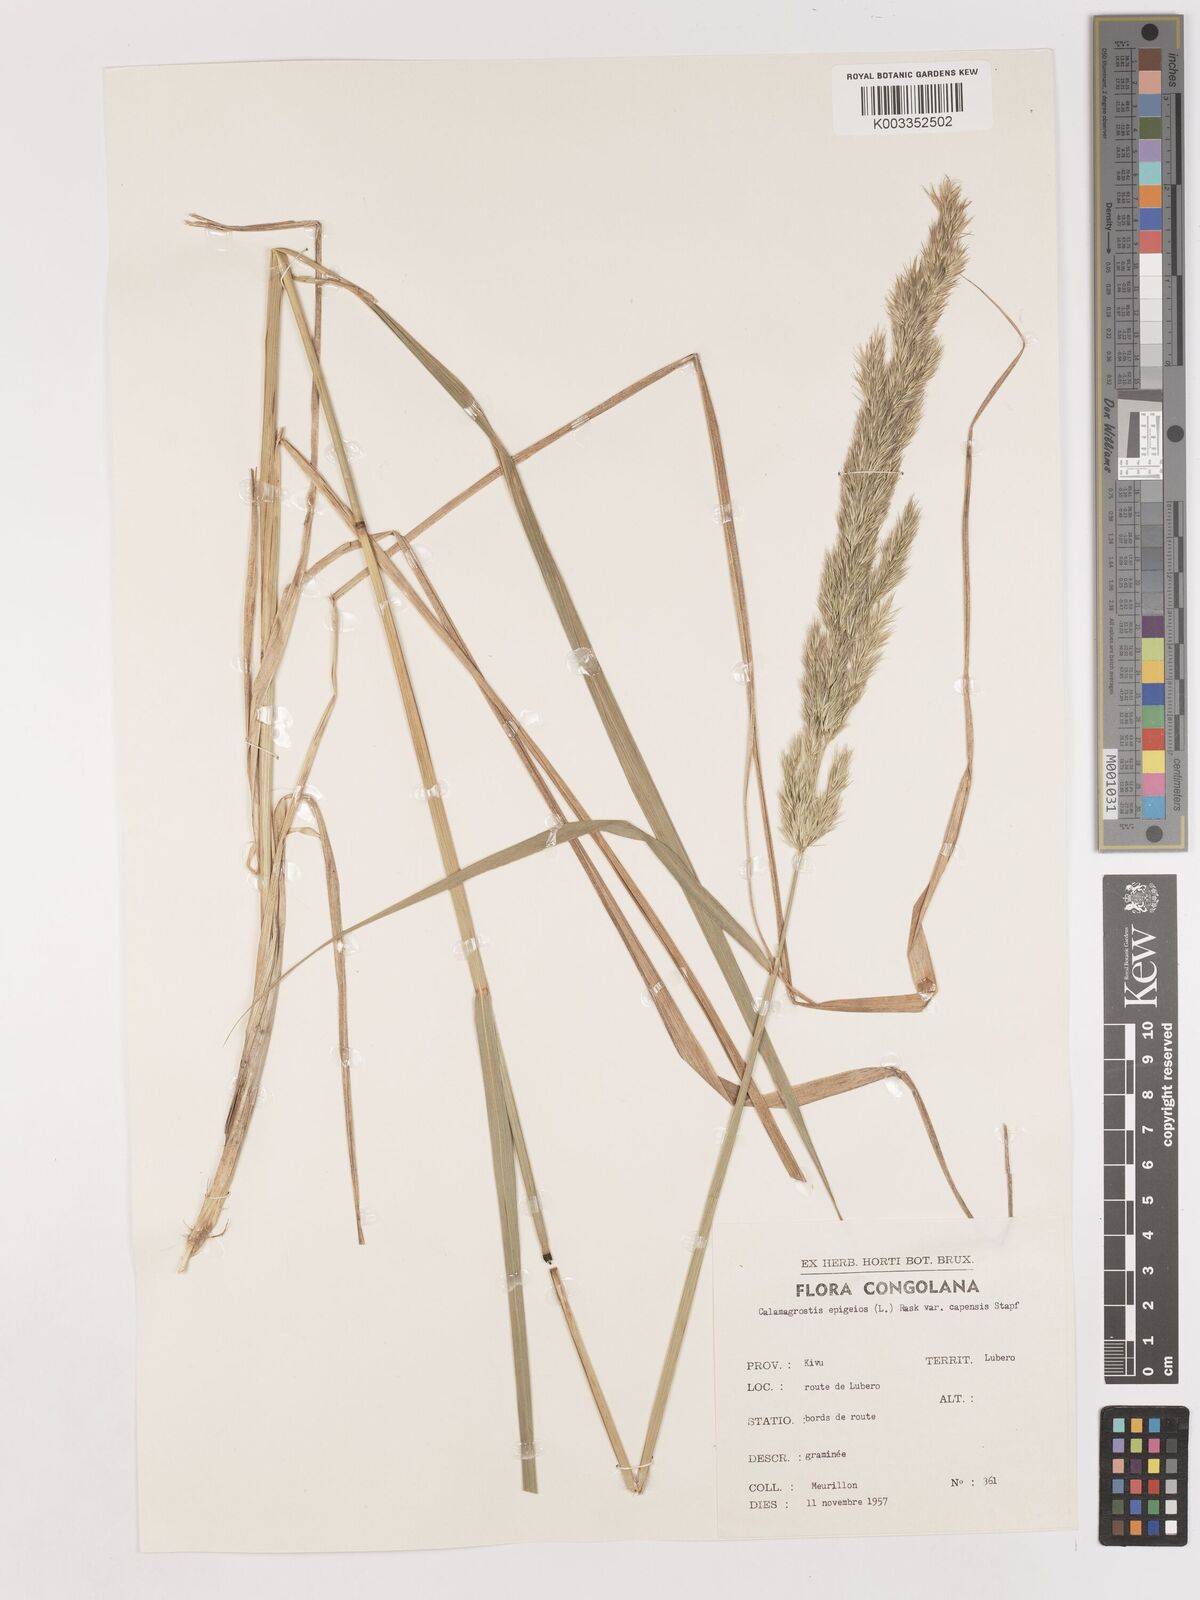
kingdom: Plantae
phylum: Tracheophyta
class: Liliopsida
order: Poales
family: Poaceae
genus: Calamagrostis
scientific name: Calamagrostis epigejos
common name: Wood small-reed
